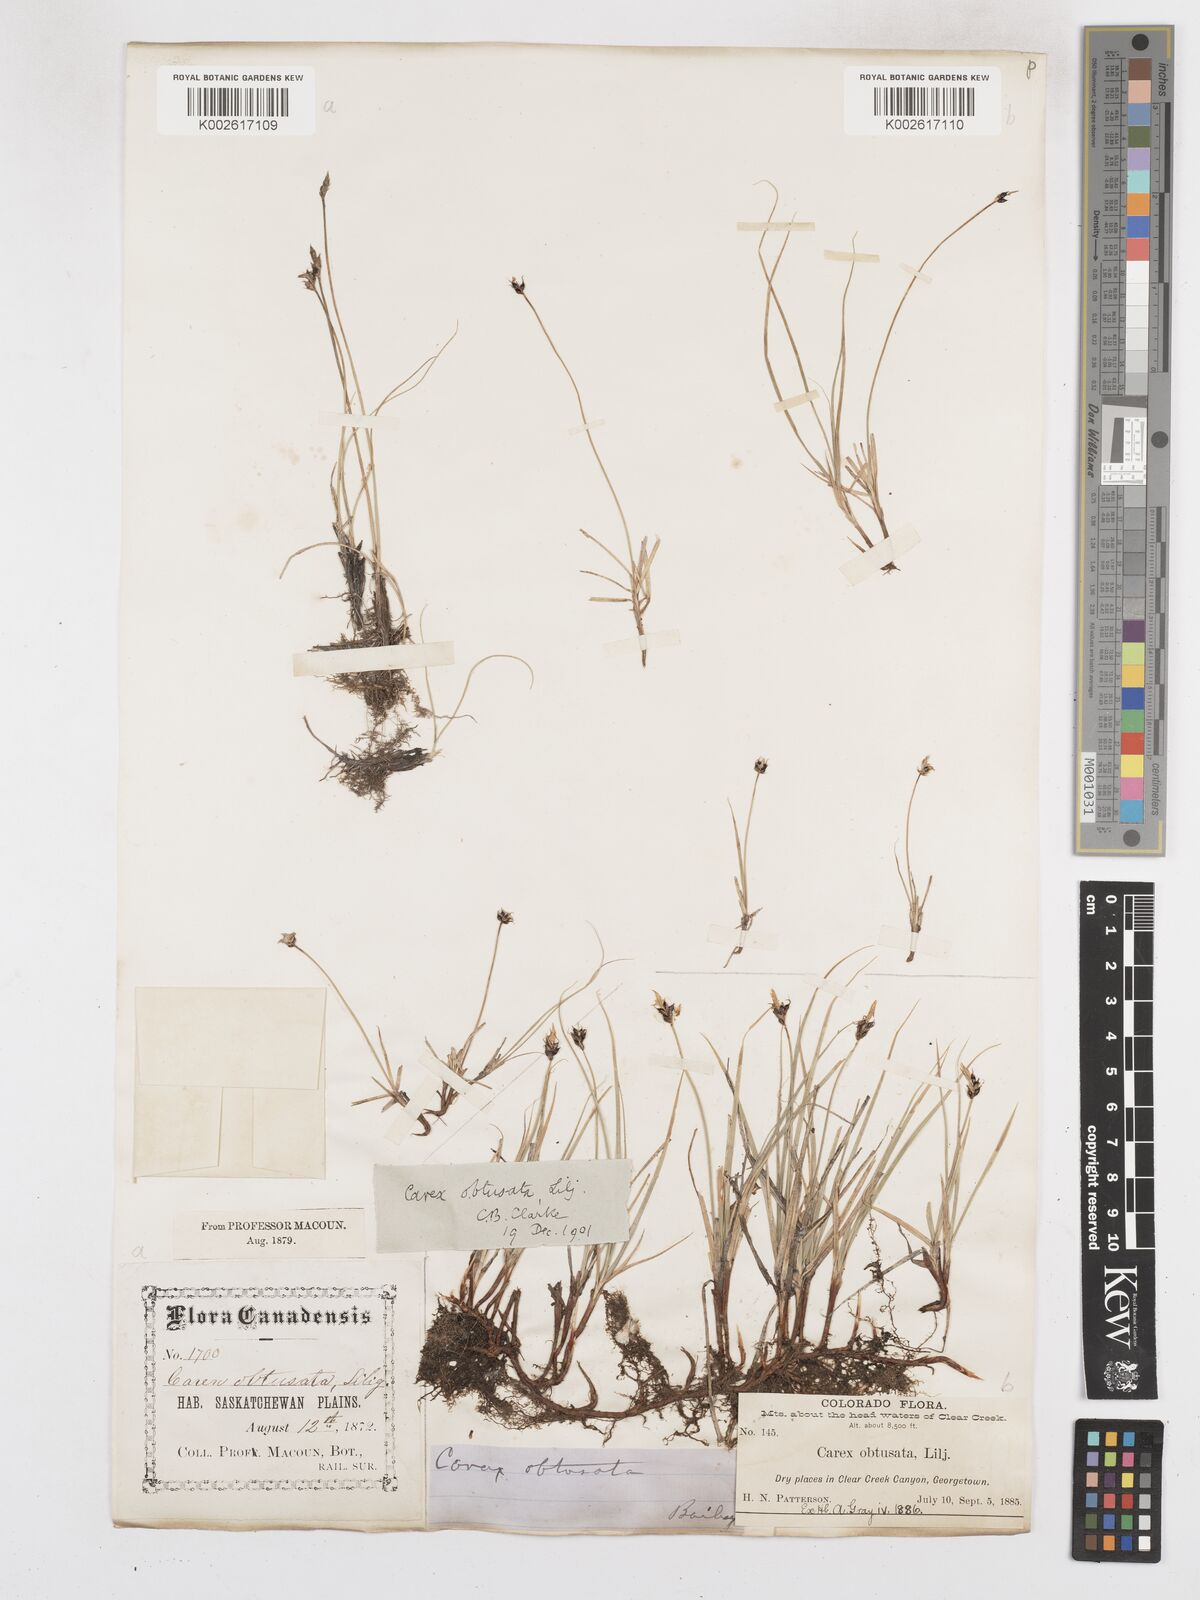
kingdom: Plantae
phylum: Tracheophyta
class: Liliopsida
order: Poales
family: Cyperaceae
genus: Carex
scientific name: Carex obtusata
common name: Blunt sedge
